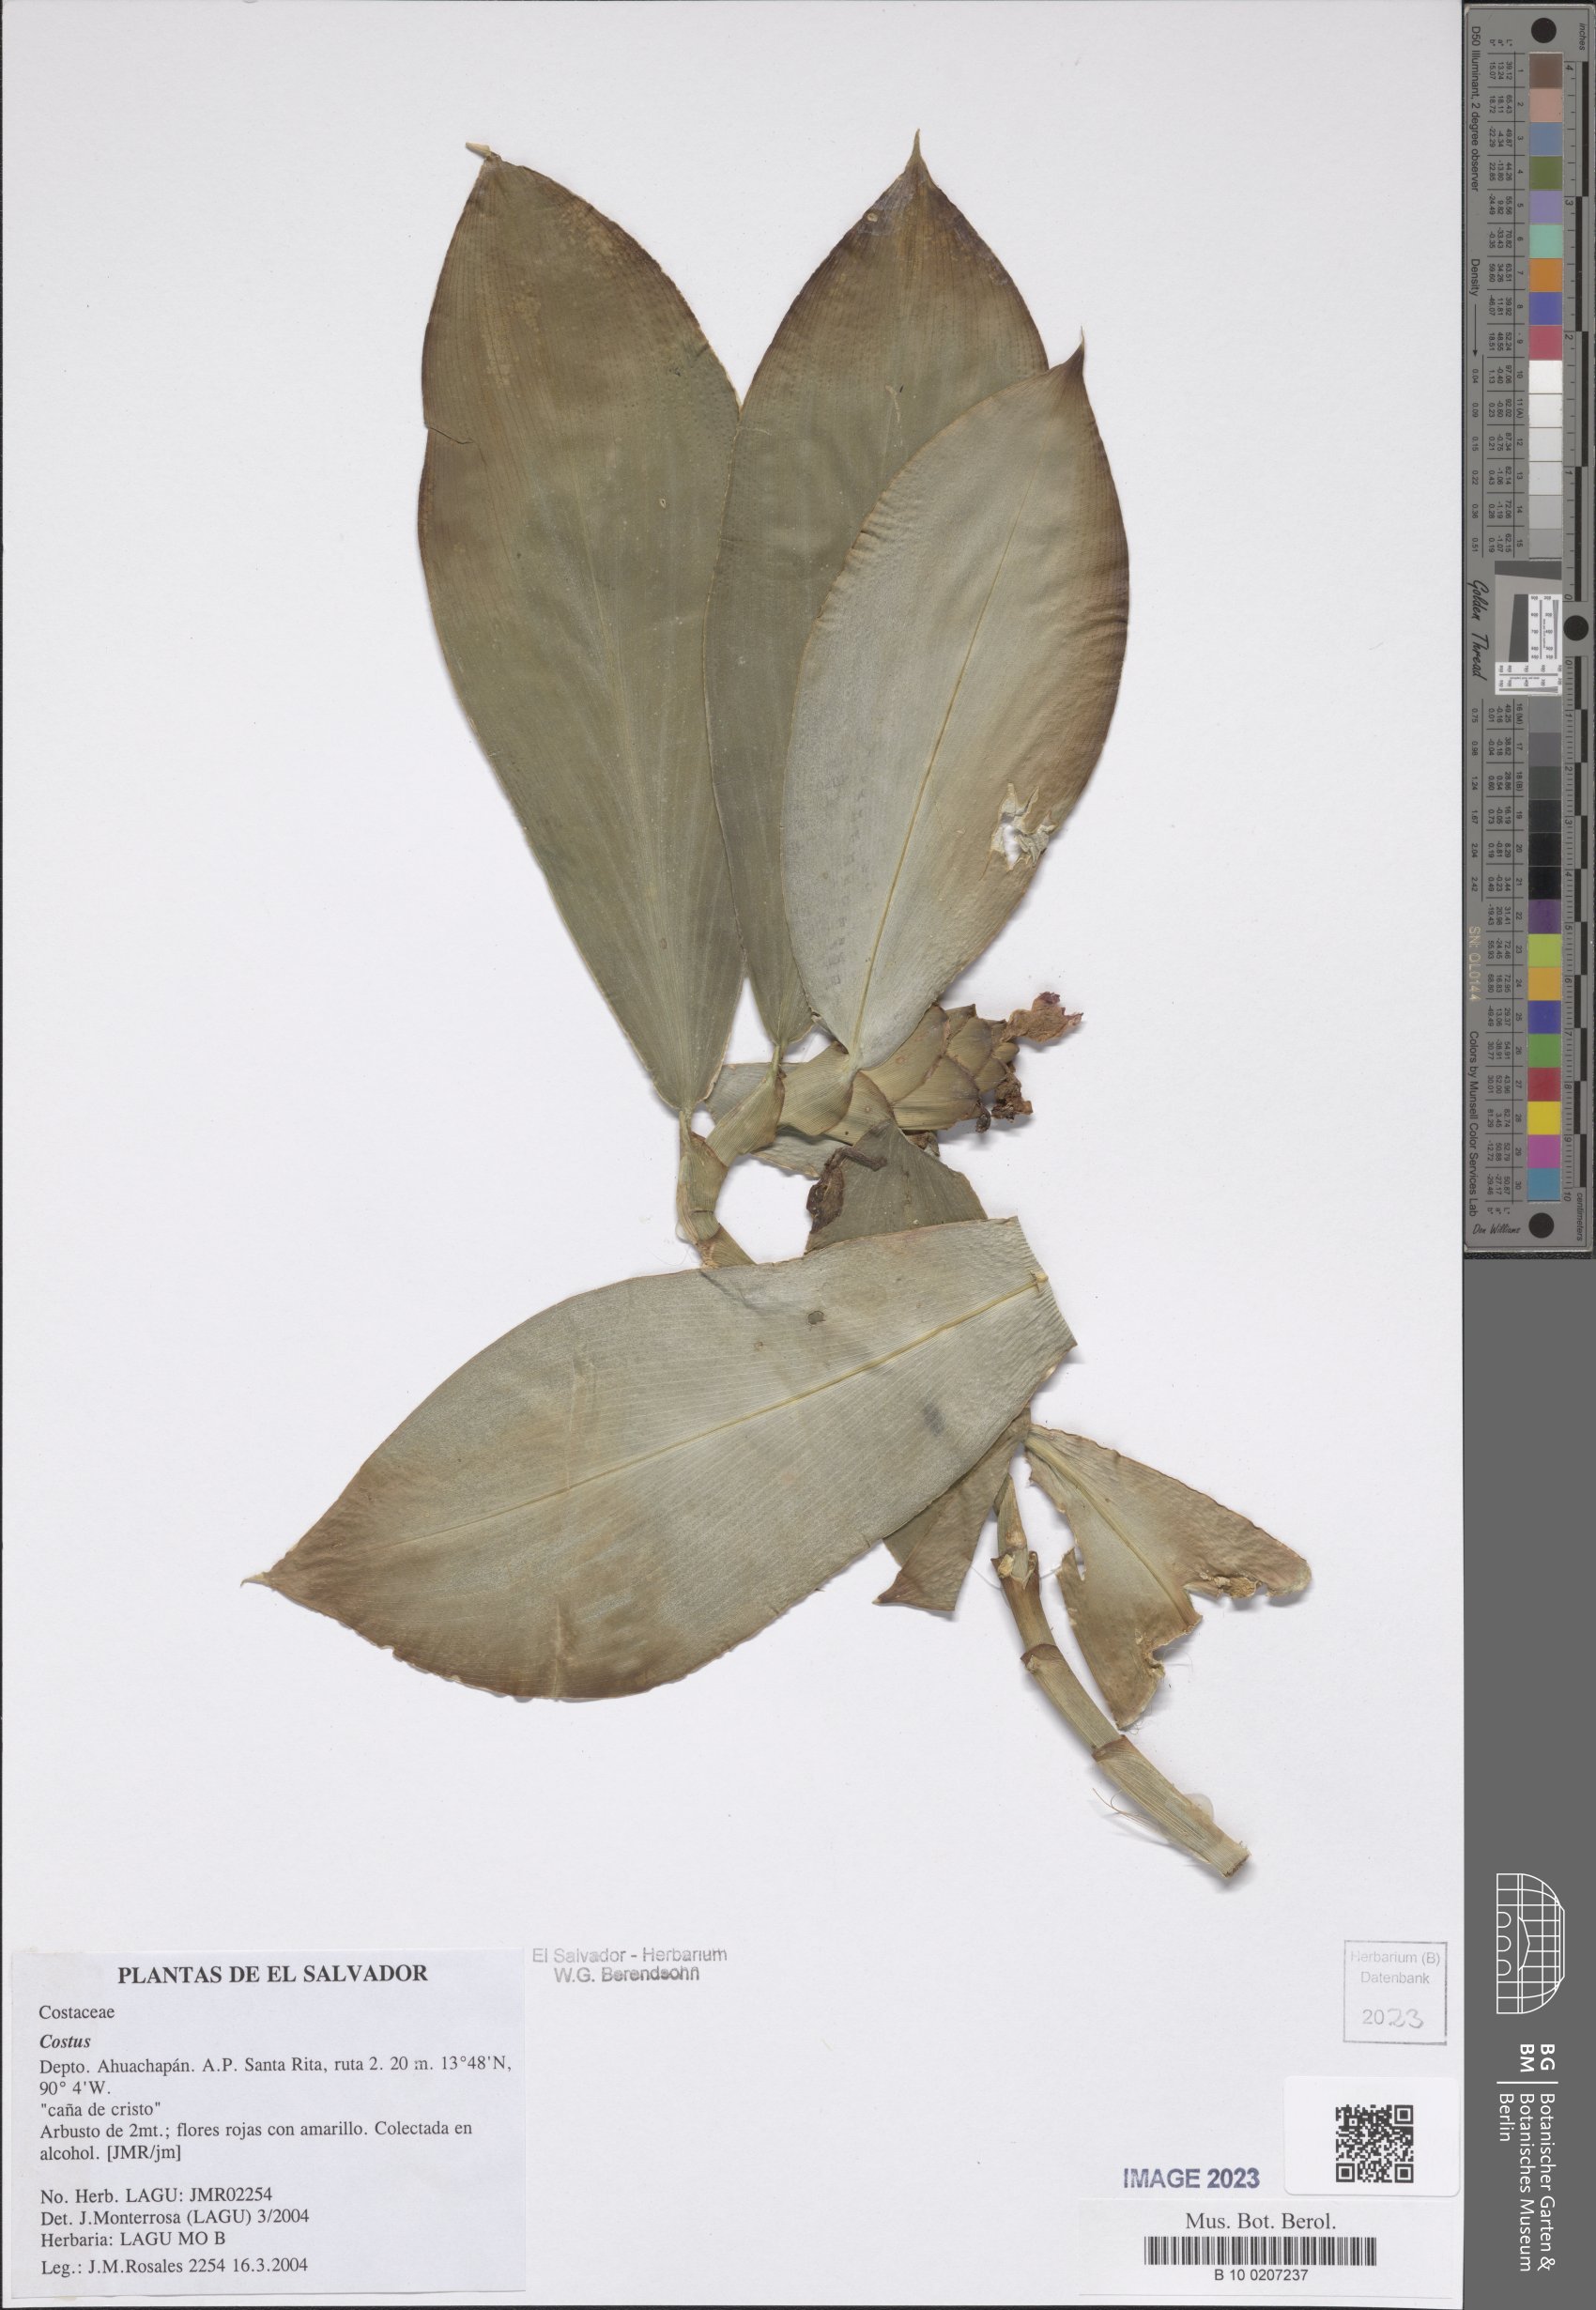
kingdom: Plantae
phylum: Tracheophyta
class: Liliopsida
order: Zingiberales
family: Costaceae
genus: Costus
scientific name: Costus
